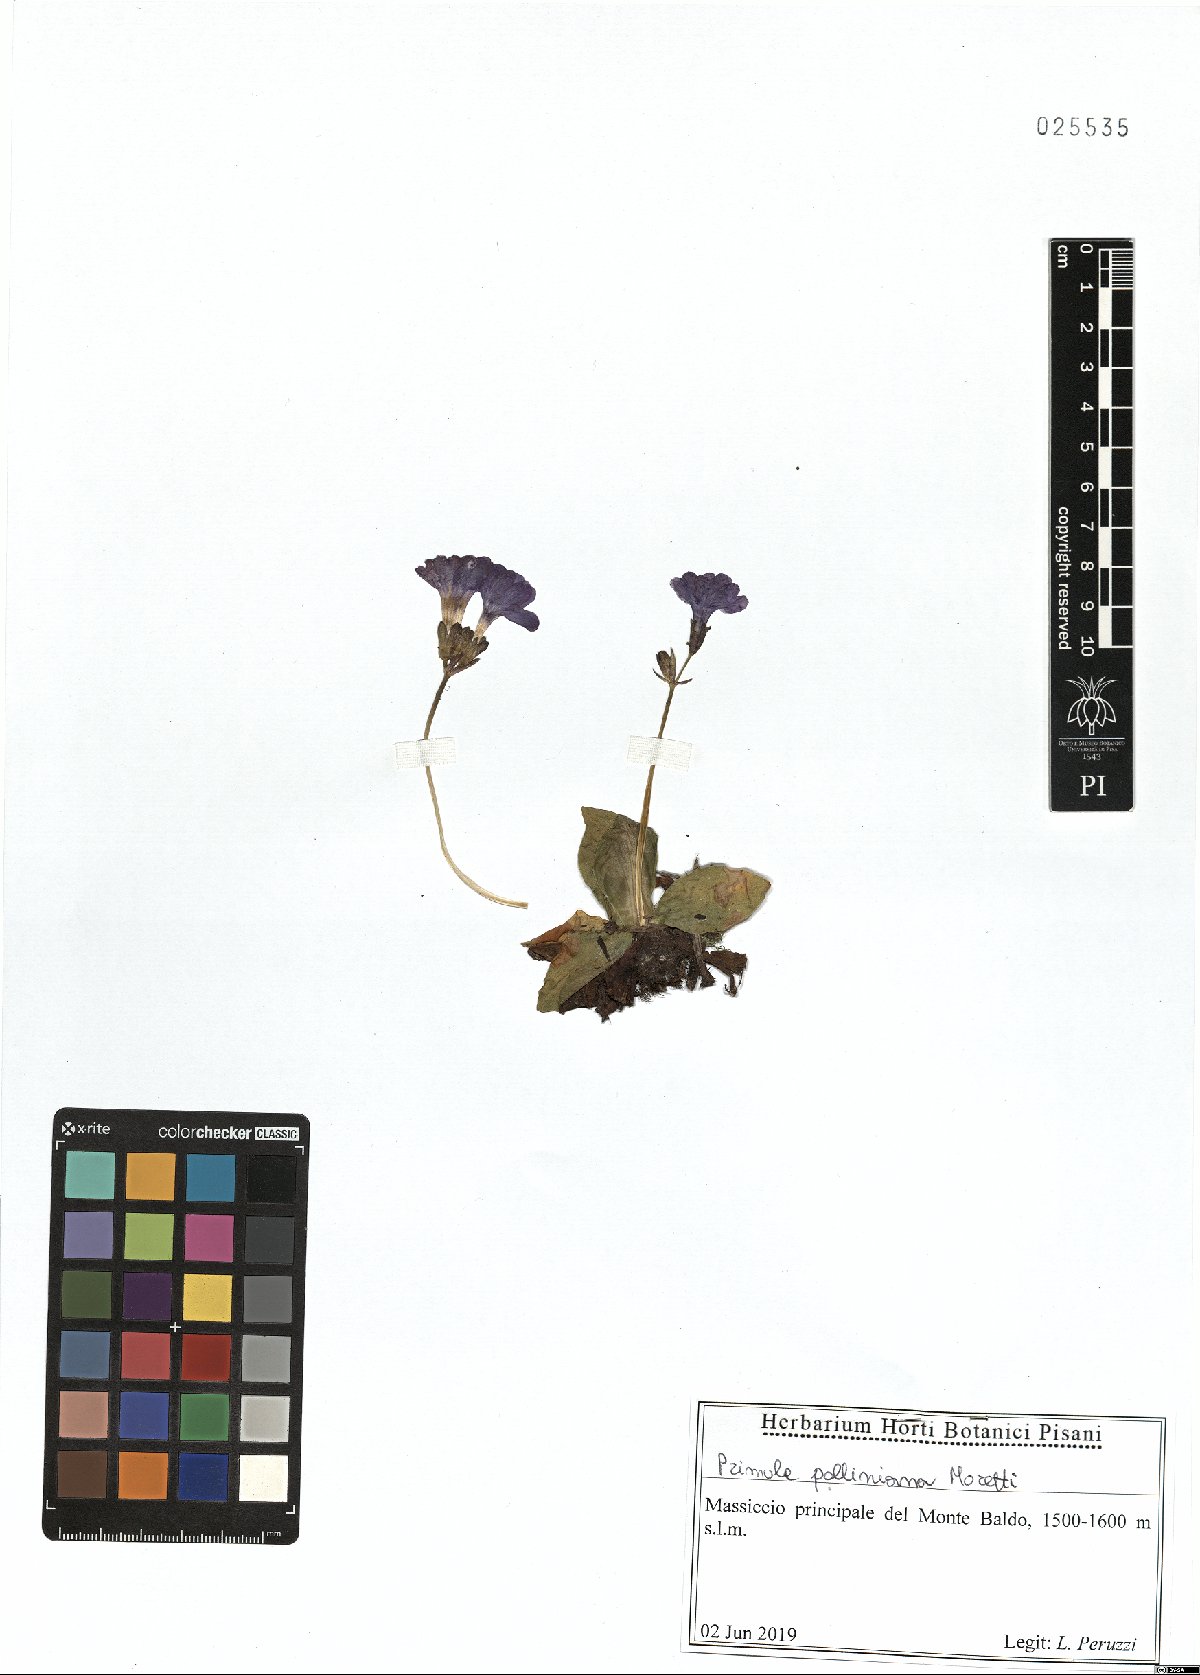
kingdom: Plantae
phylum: Tracheophyta
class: Magnoliopsida
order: Ericales
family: Primulaceae
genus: Primula
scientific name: Primula spectabilis
